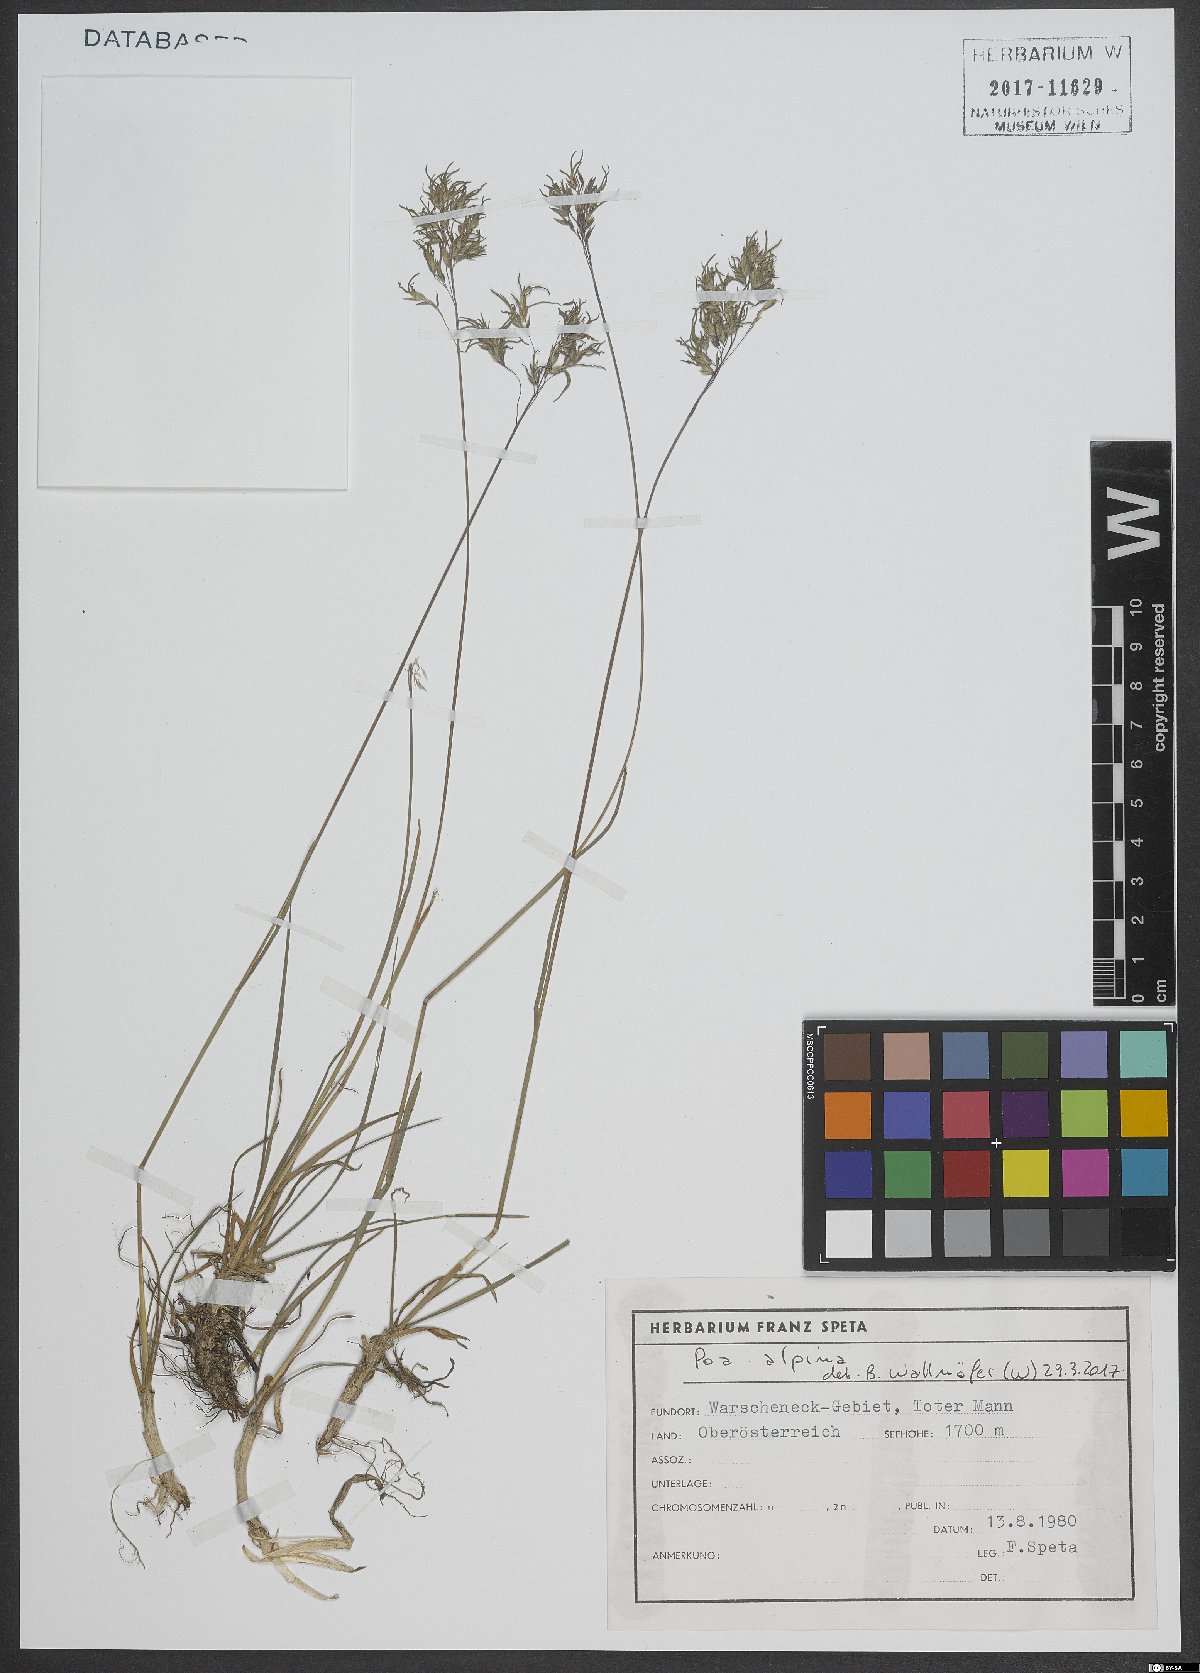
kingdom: Plantae
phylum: Tracheophyta
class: Liliopsida
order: Poales
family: Poaceae
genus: Poa
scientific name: Poa alpina
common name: Alpine bluegrass
